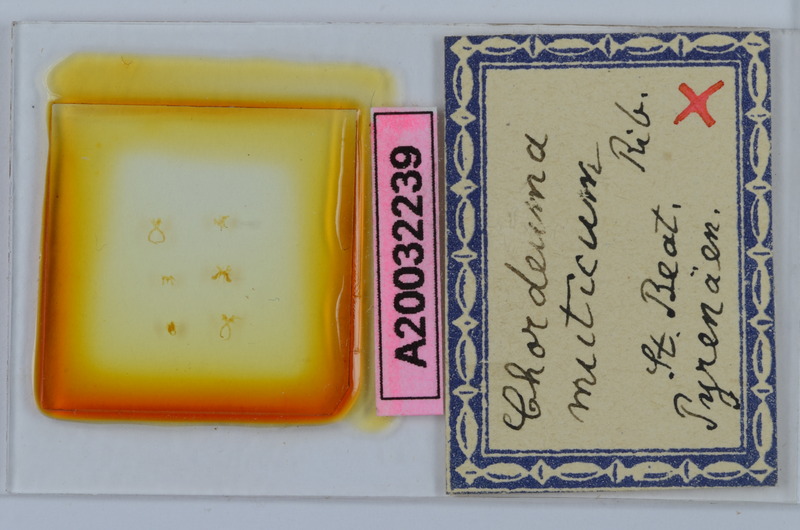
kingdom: Animalia
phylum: Arthropoda
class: Diplopoda
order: Chordeumatida
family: Chordeumatidae
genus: Chordeuma
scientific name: Chordeuma muticum
